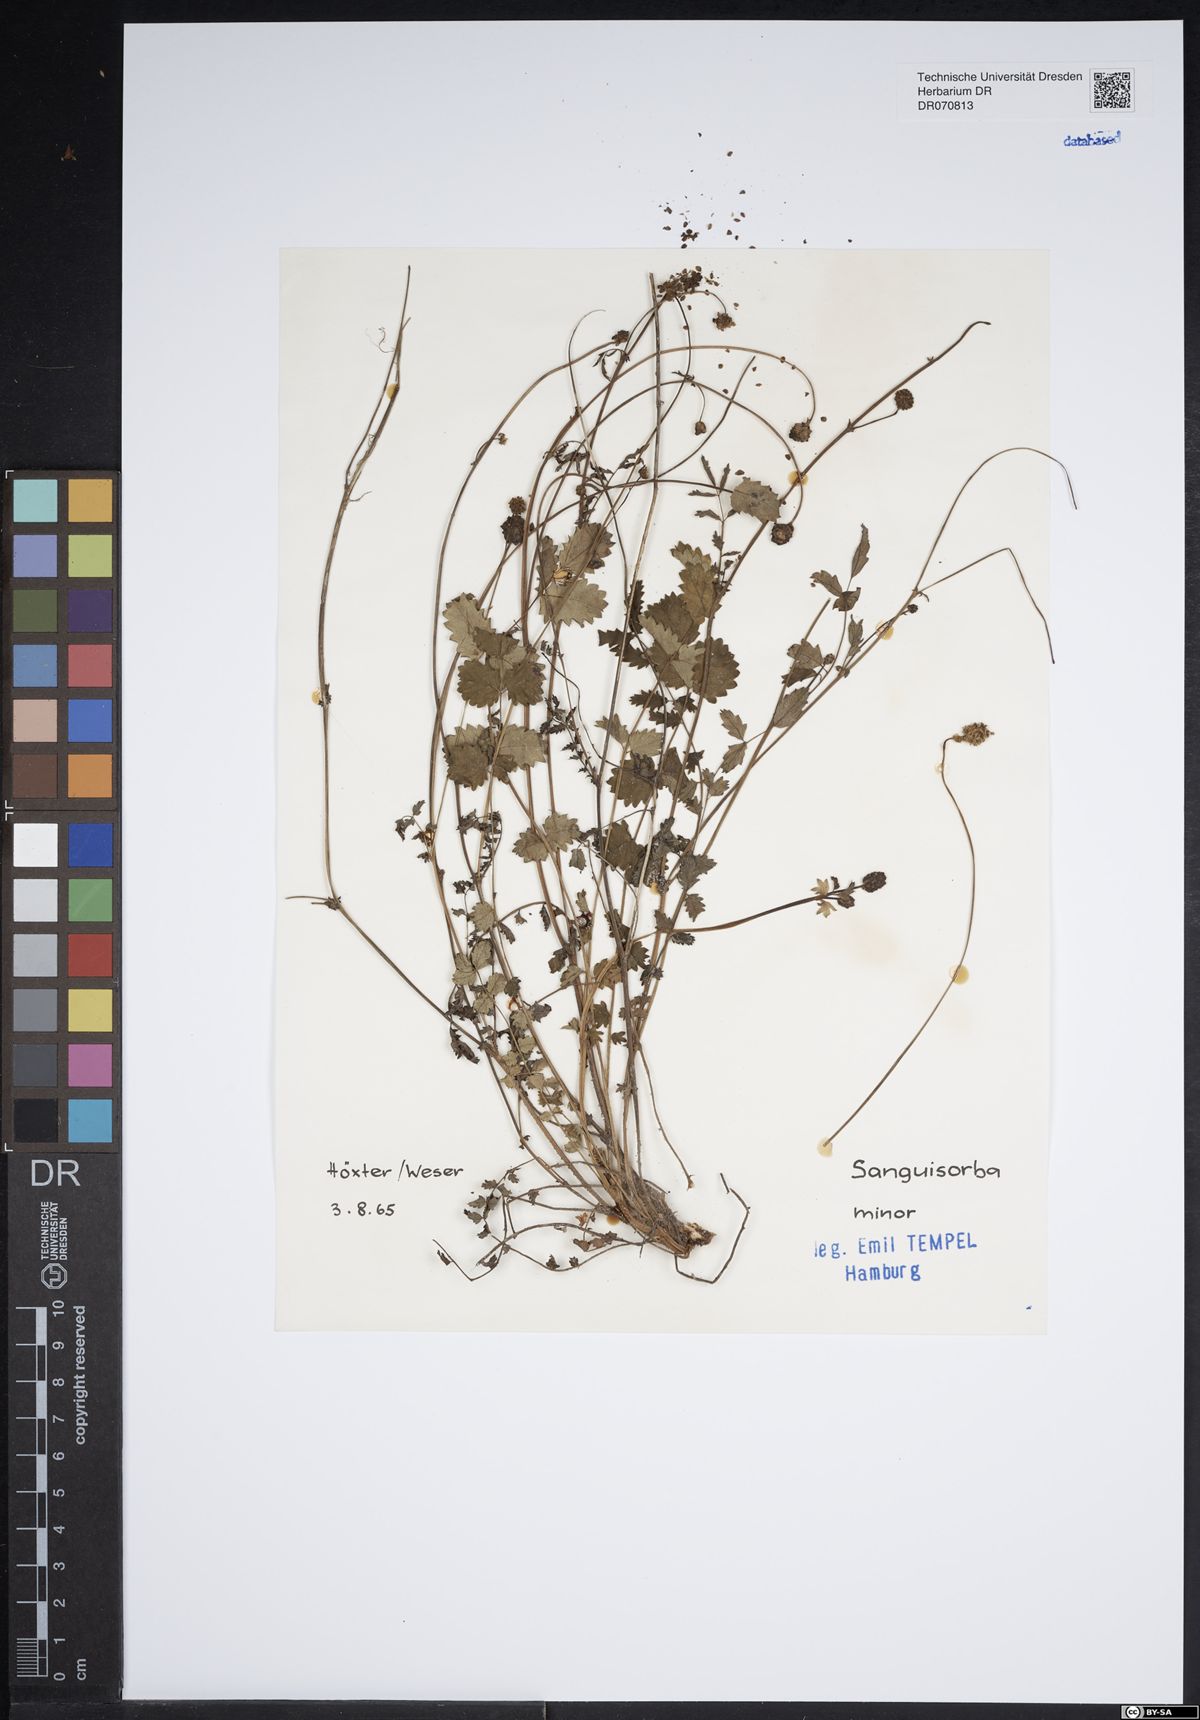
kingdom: Plantae
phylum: Tracheophyta
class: Magnoliopsida
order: Rosales
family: Rosaceae
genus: Poterium
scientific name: Poterium sanguisorba
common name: Salad burnet
